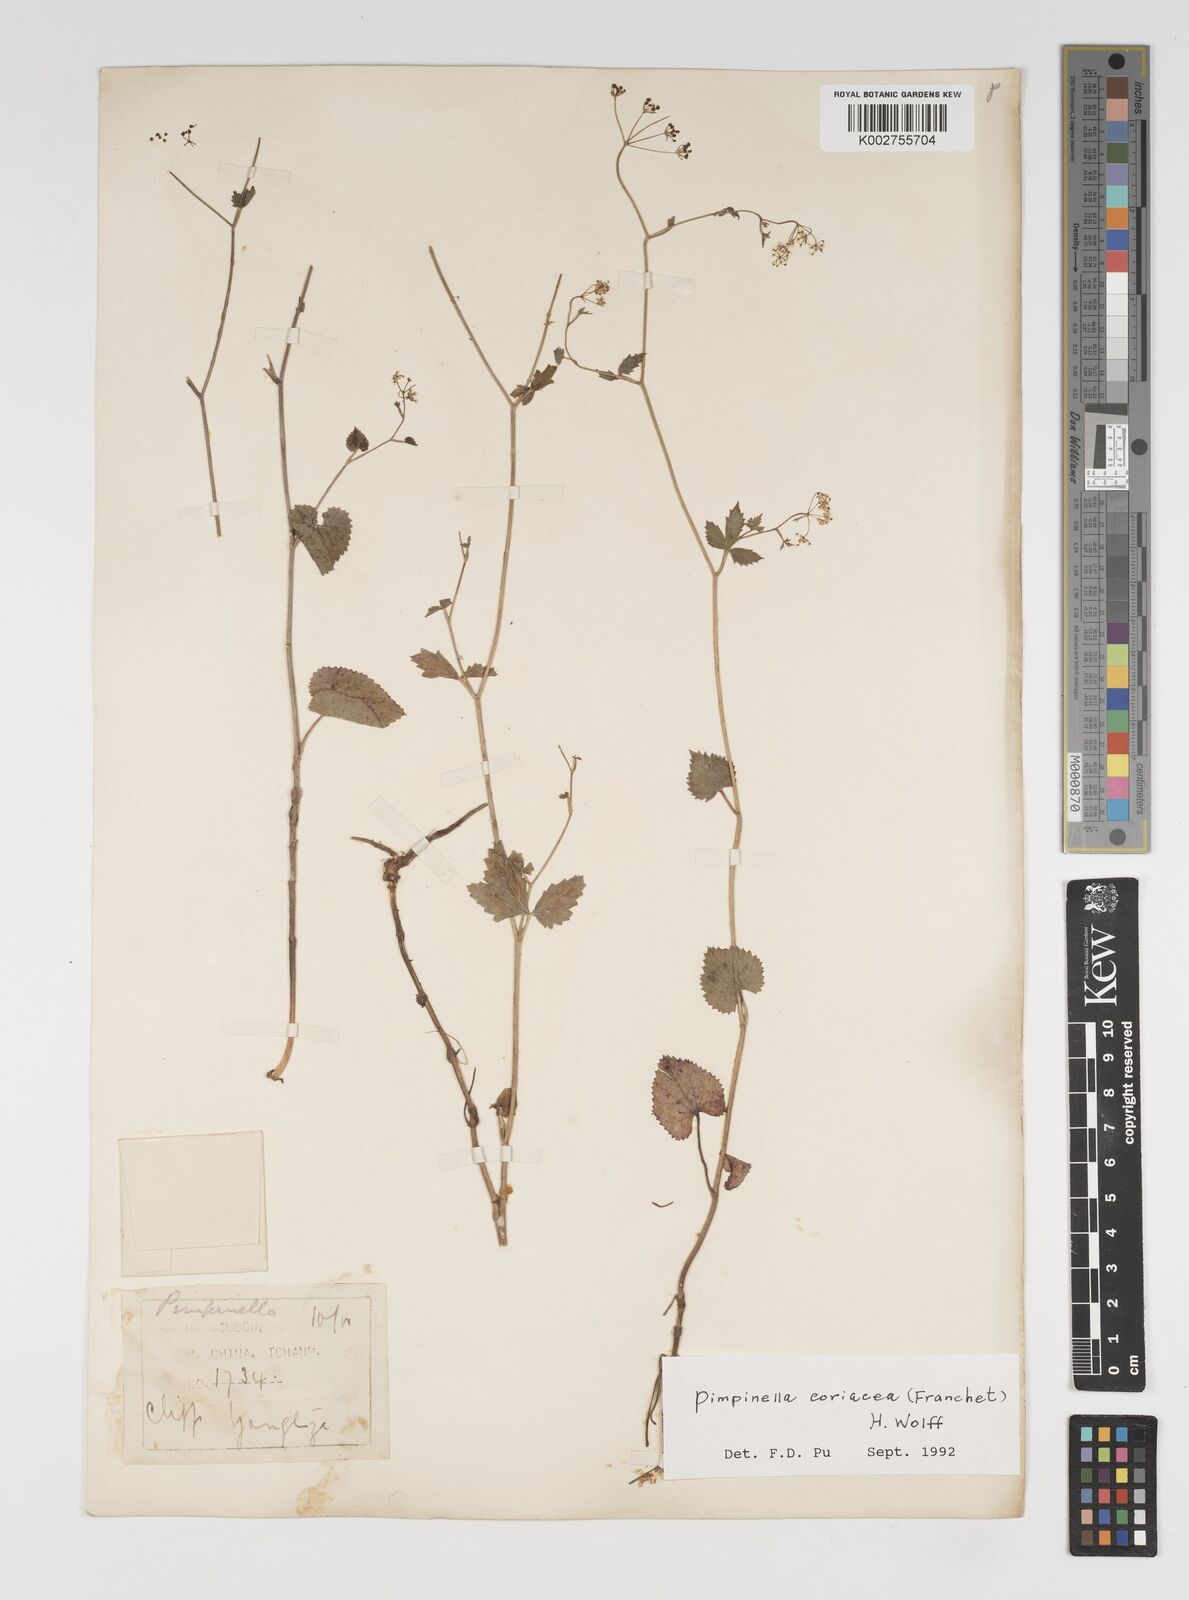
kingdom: Plantae
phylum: Tracheophyta
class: Magnoliopsida
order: Apiales
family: Apiaceae
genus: Pimpinella
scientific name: Pimpinella coriacea
